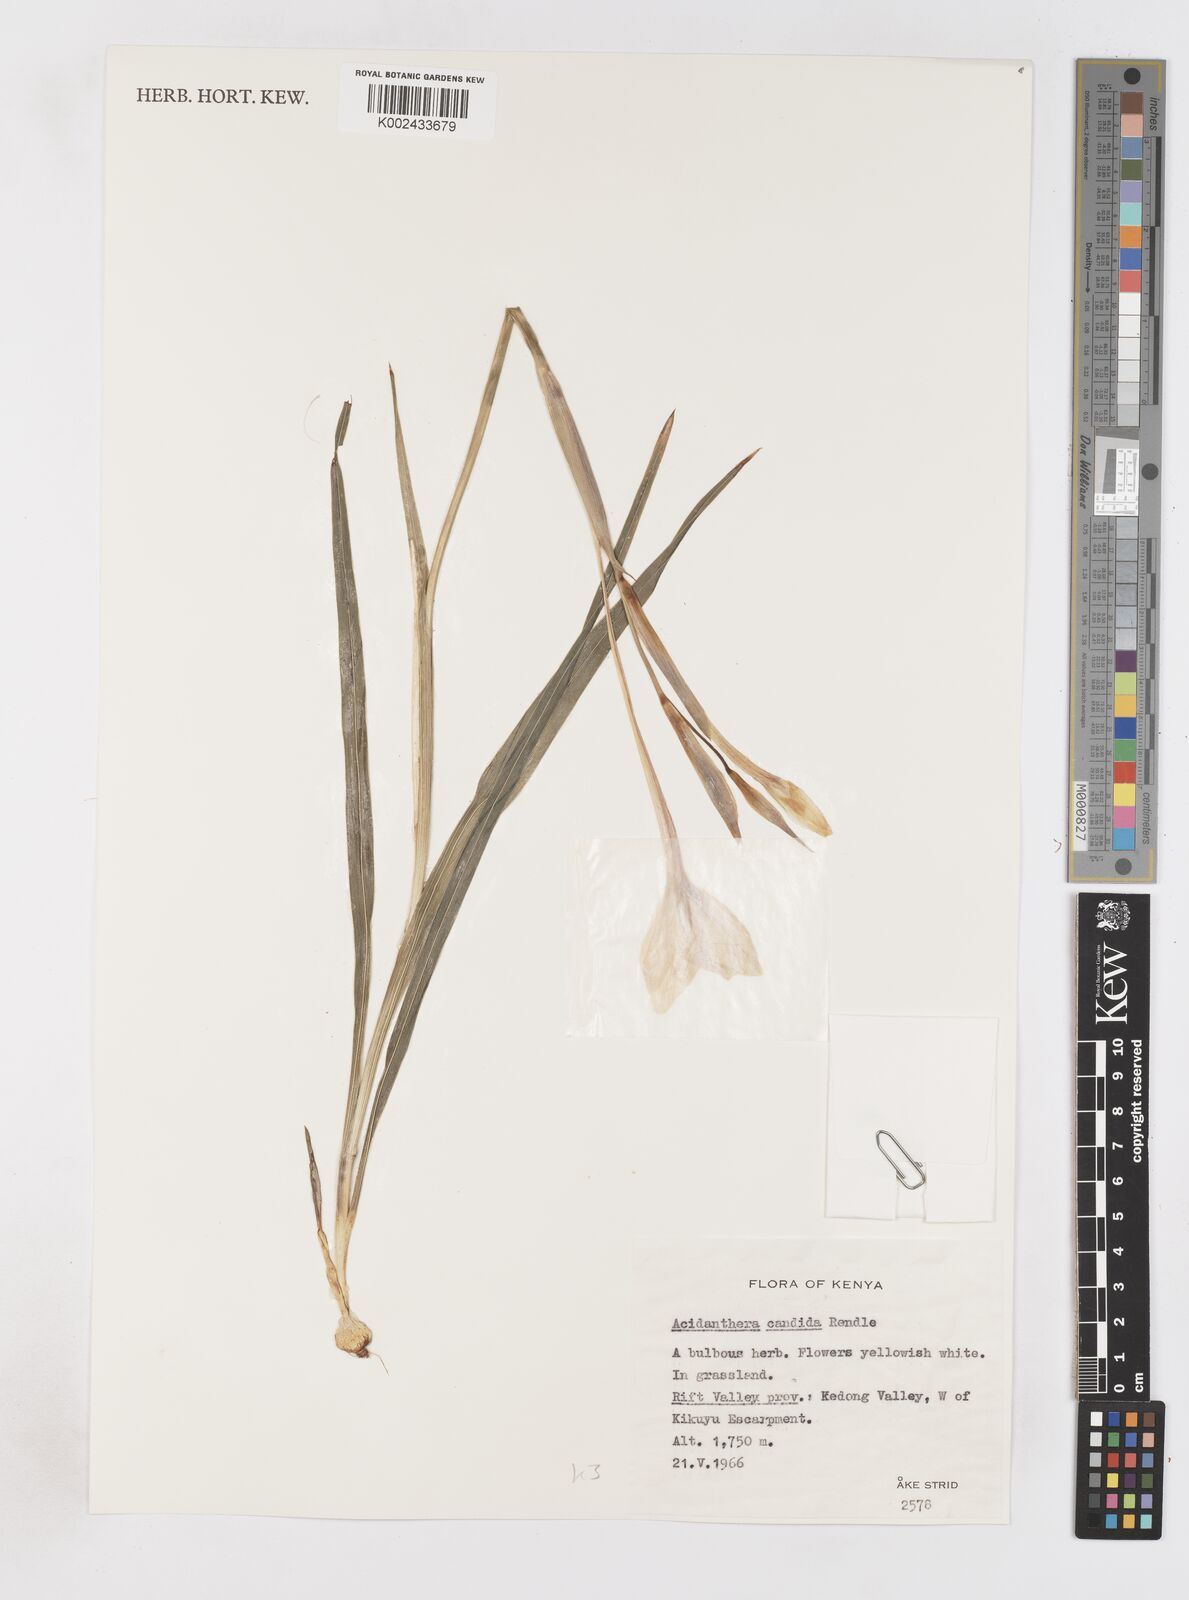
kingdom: Plantae
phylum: Tracheophyta
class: Liliopsida
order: Asparagales
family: Iridaceae
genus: Gladiolus
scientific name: Gladiolus candidus
